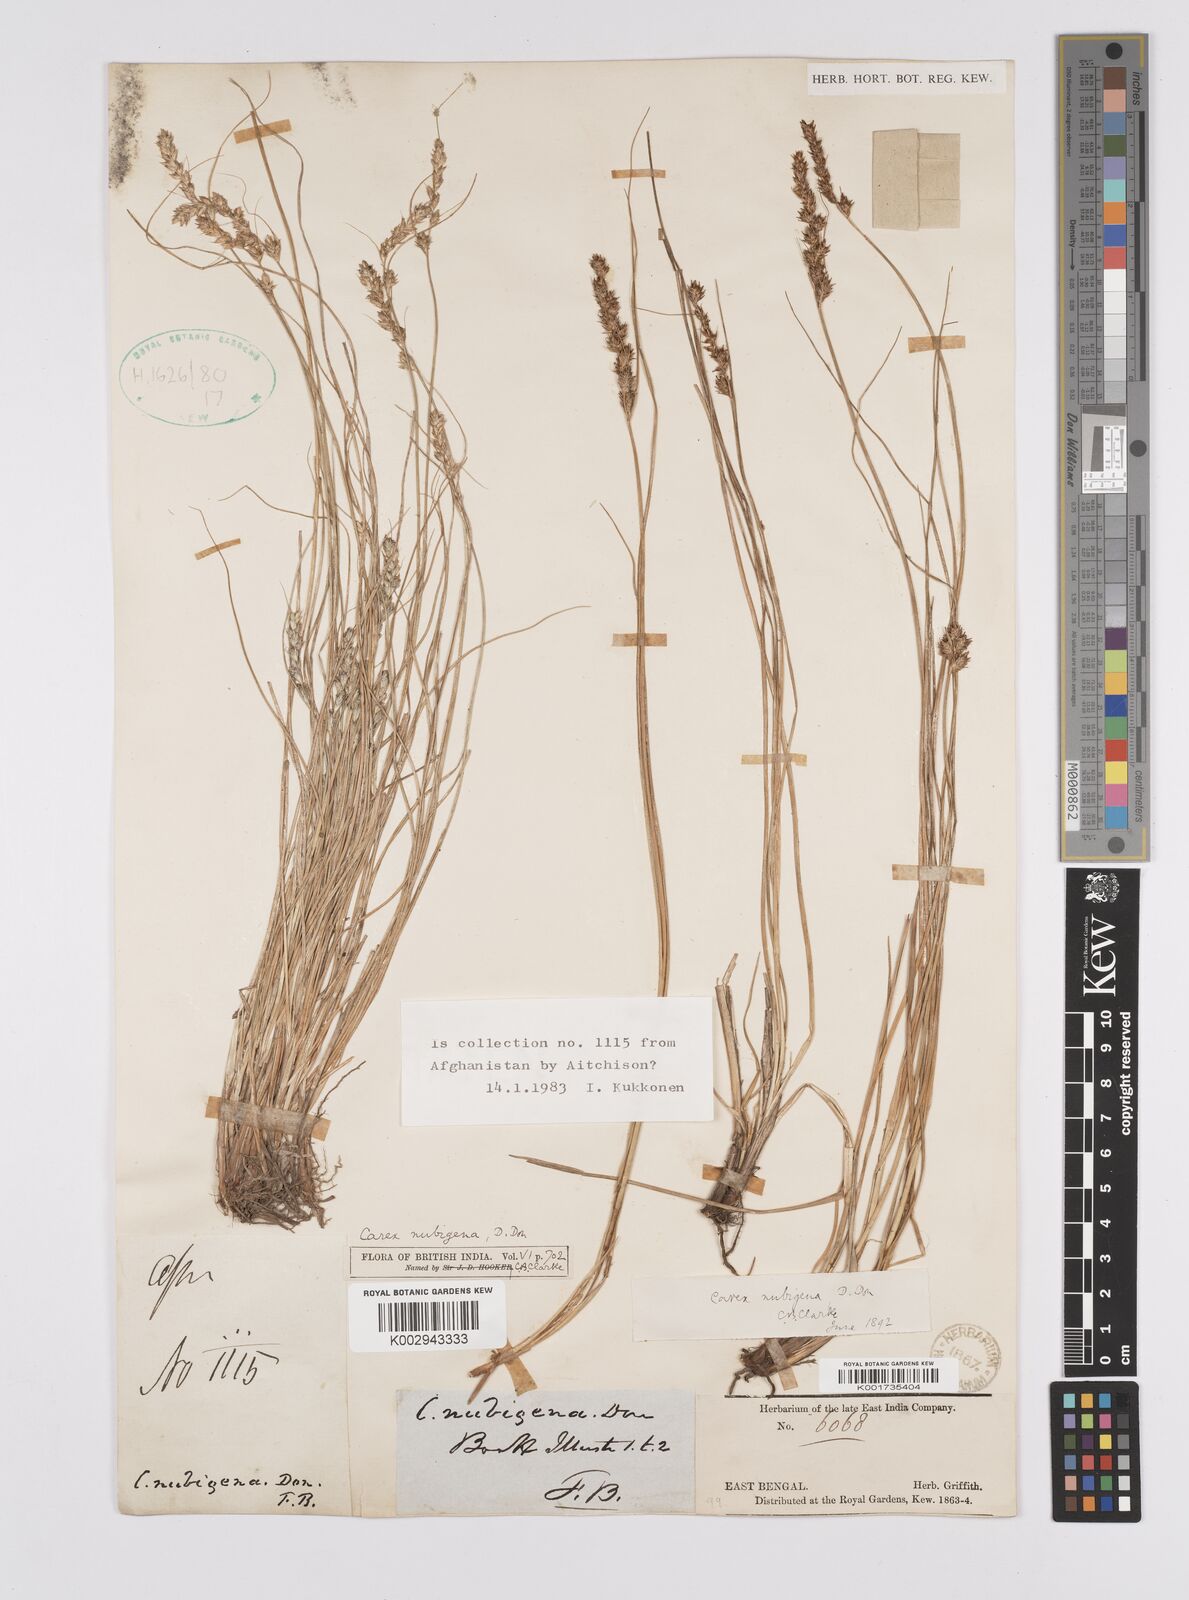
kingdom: Plantae
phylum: Tracheophyta
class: Liliopsida
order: Poales
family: Cyperaceae
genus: Carex
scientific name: Carex nubigena
